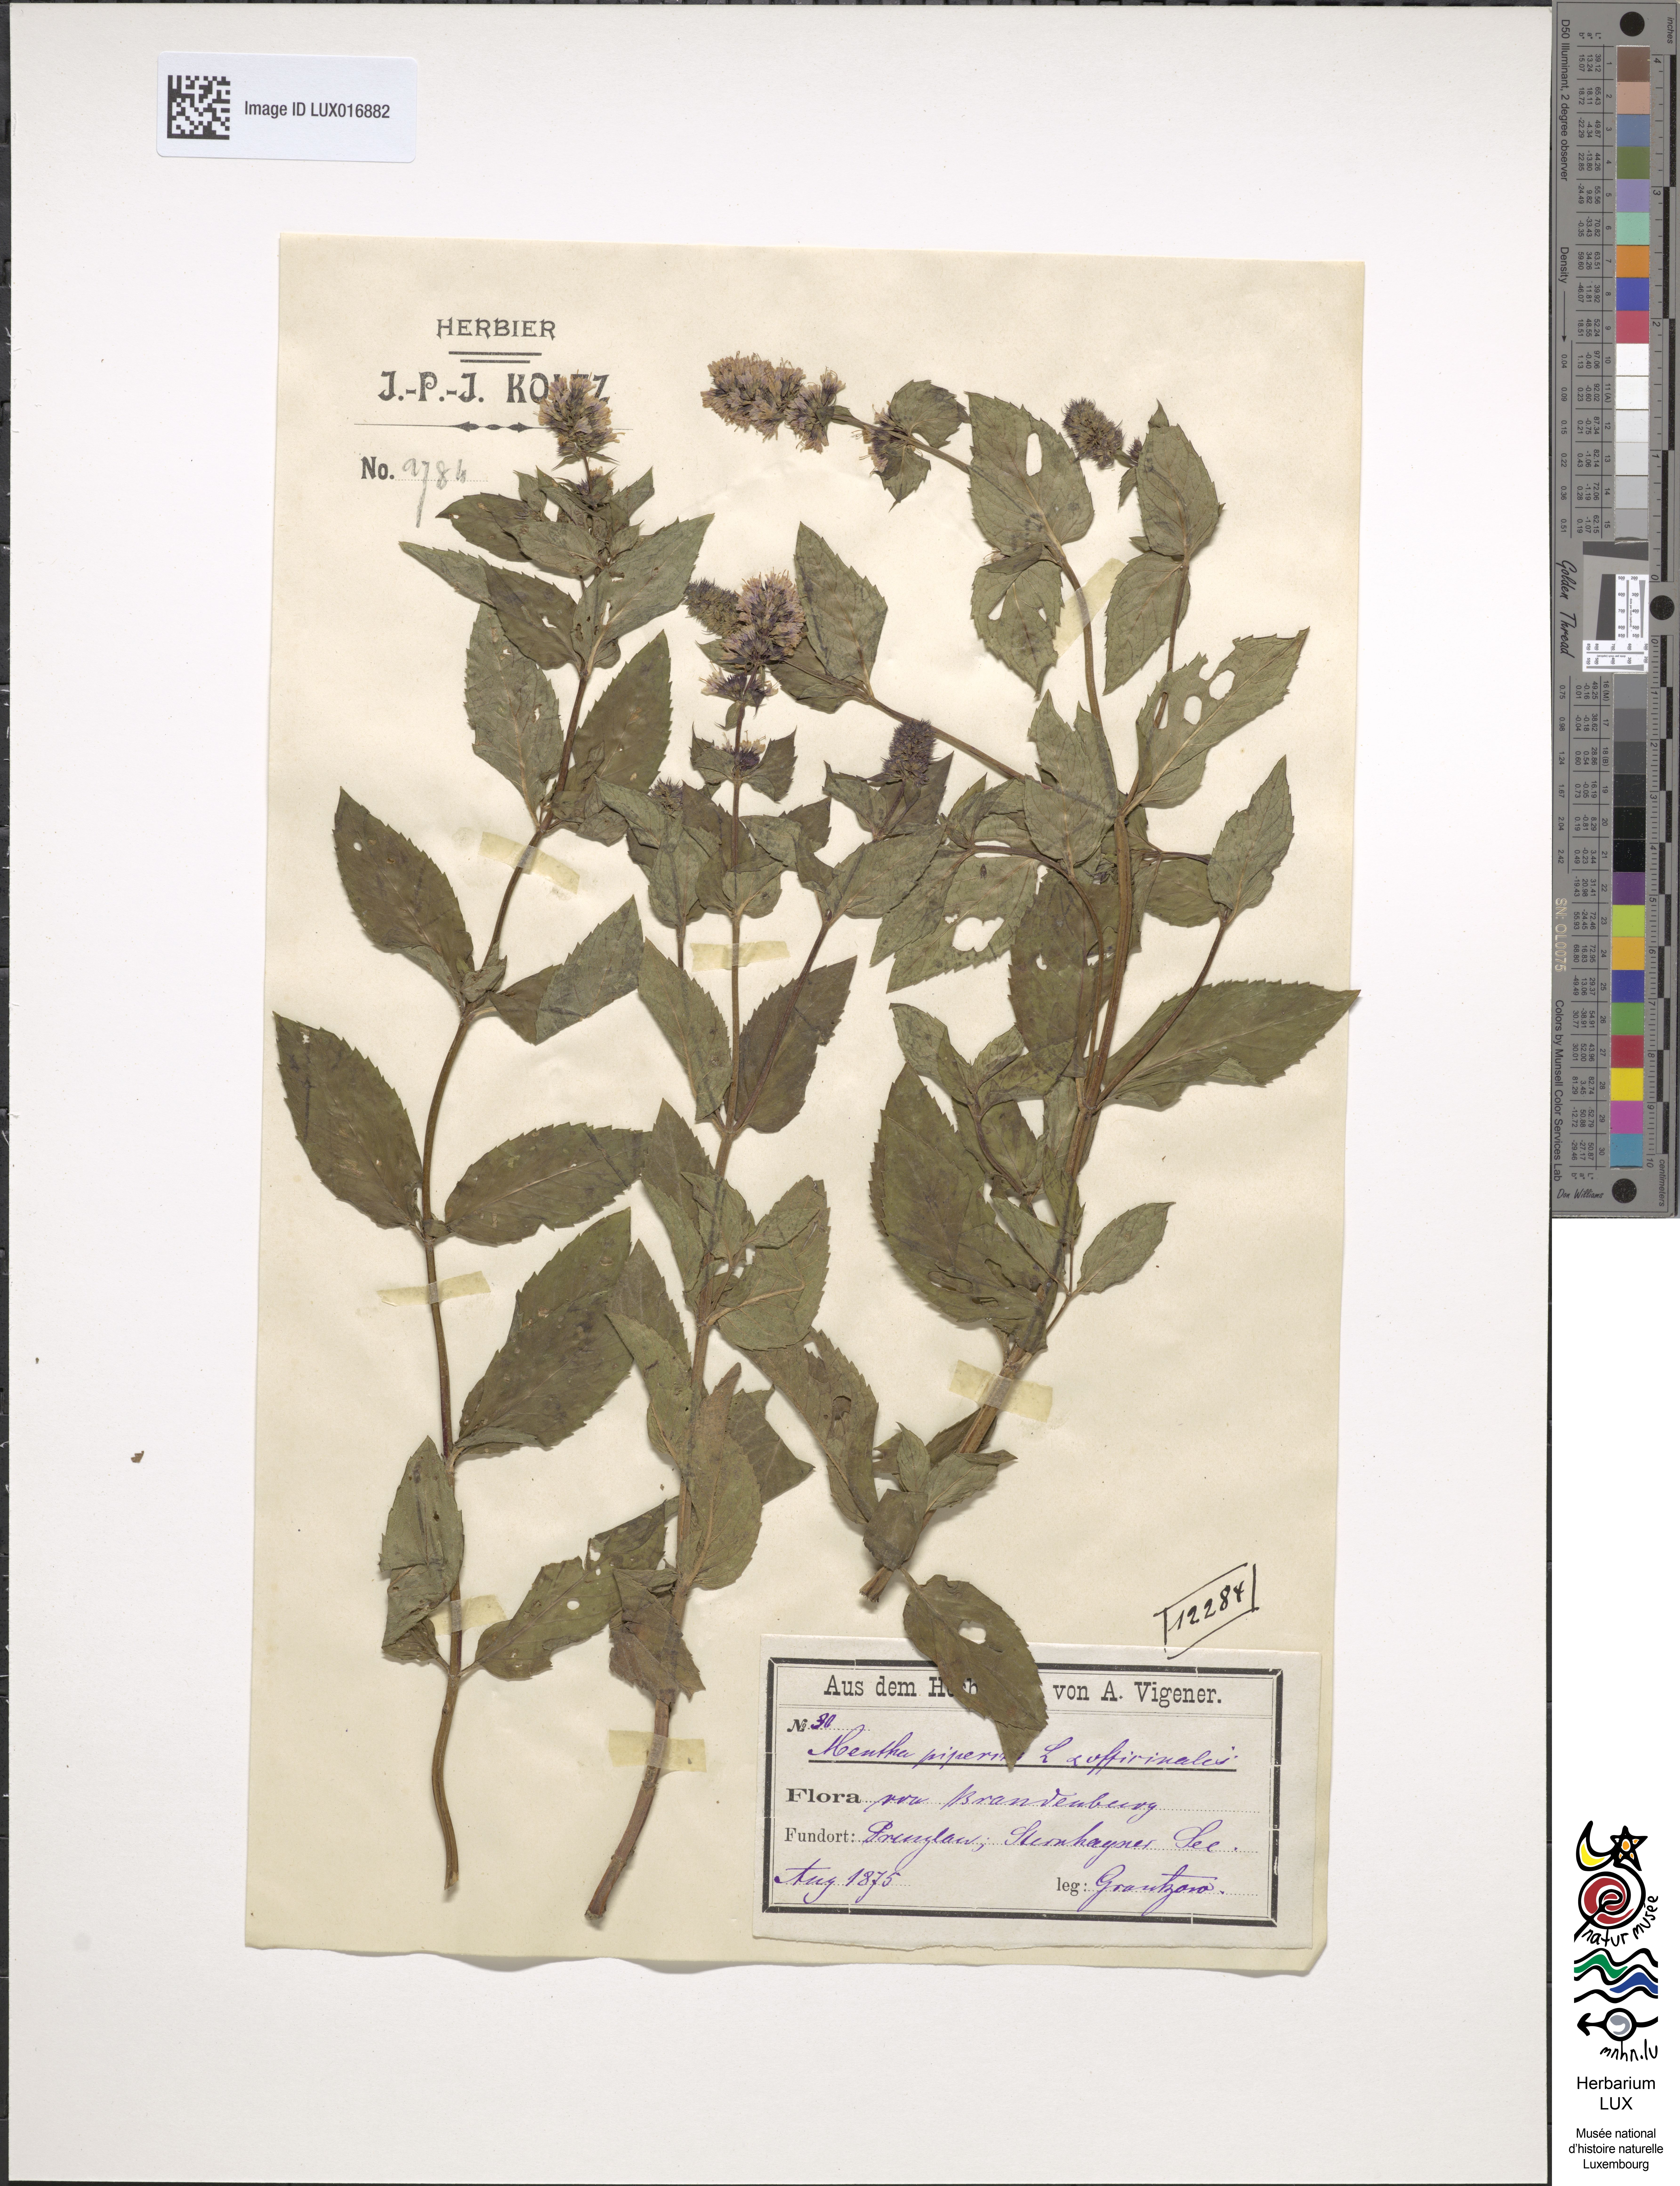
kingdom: Plantae
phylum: Tracheophyta
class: Magnoliopsida
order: Lamiales
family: Lamiaceae
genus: Mentha
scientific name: Mentha piperita
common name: Peppermint
